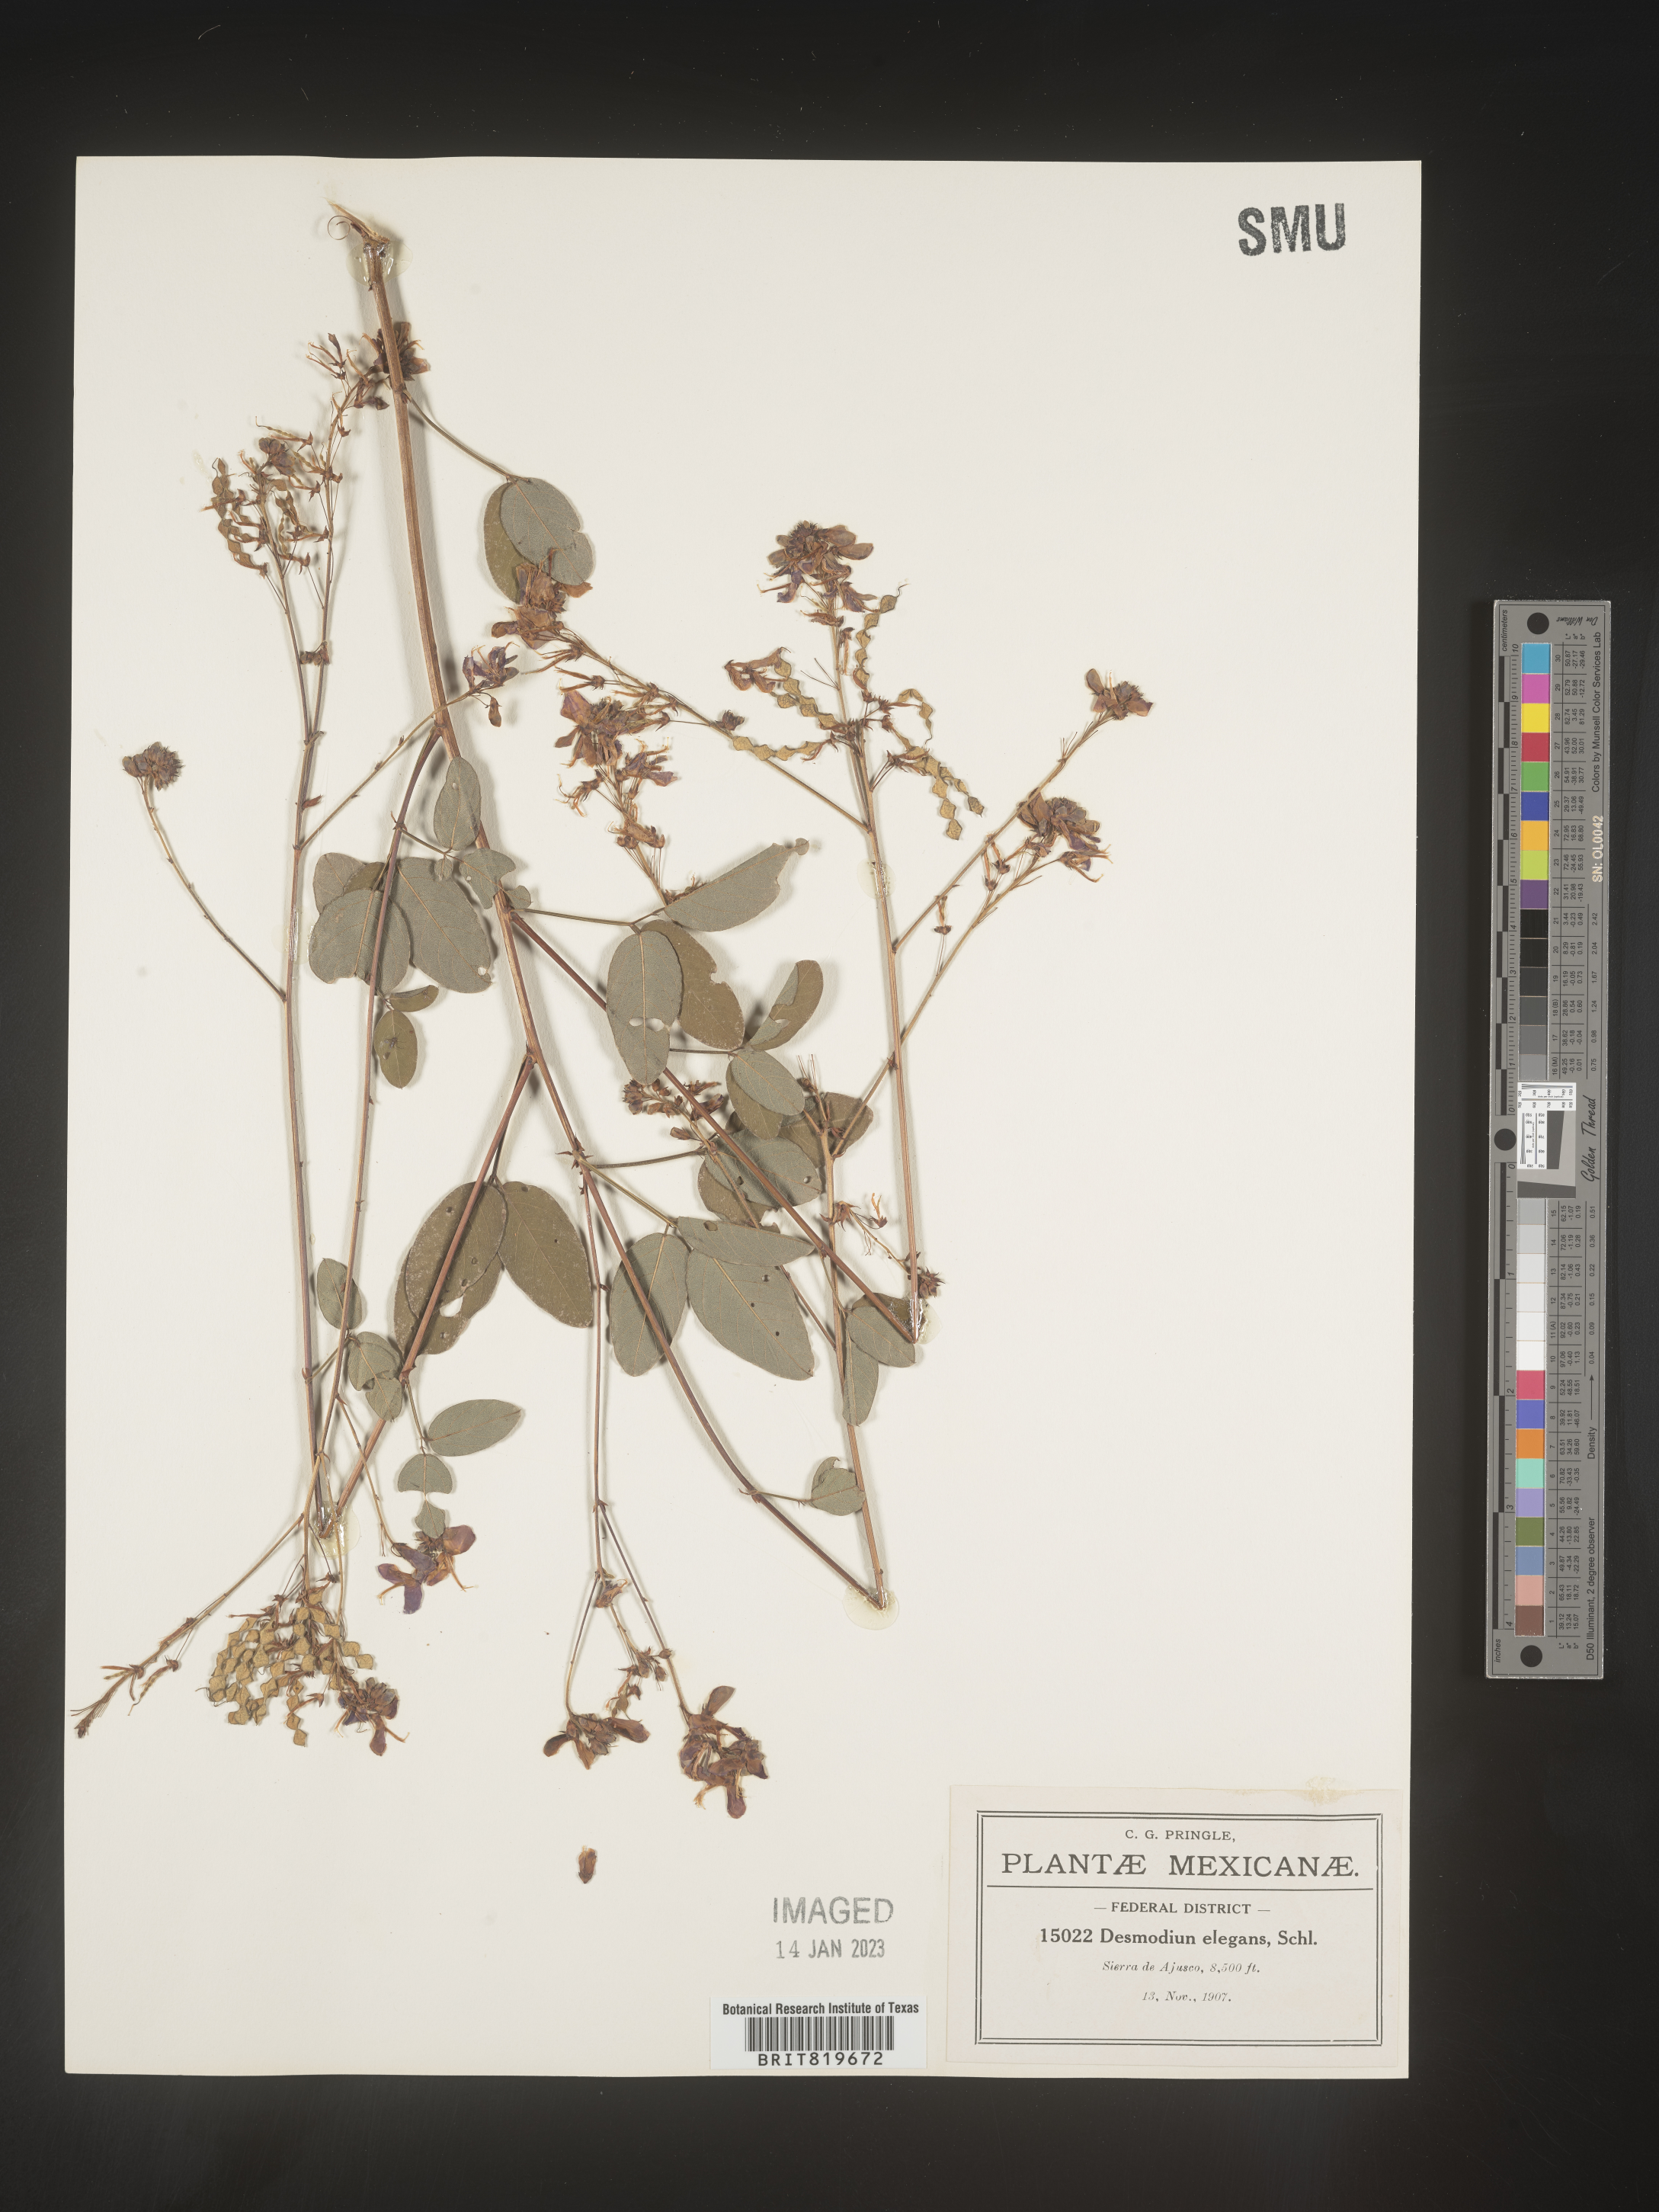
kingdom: Plantae
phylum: Tracheophyta
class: Magnoliopsida
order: Fabales
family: Fabaceae
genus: Desmodium
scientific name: Desmodium
